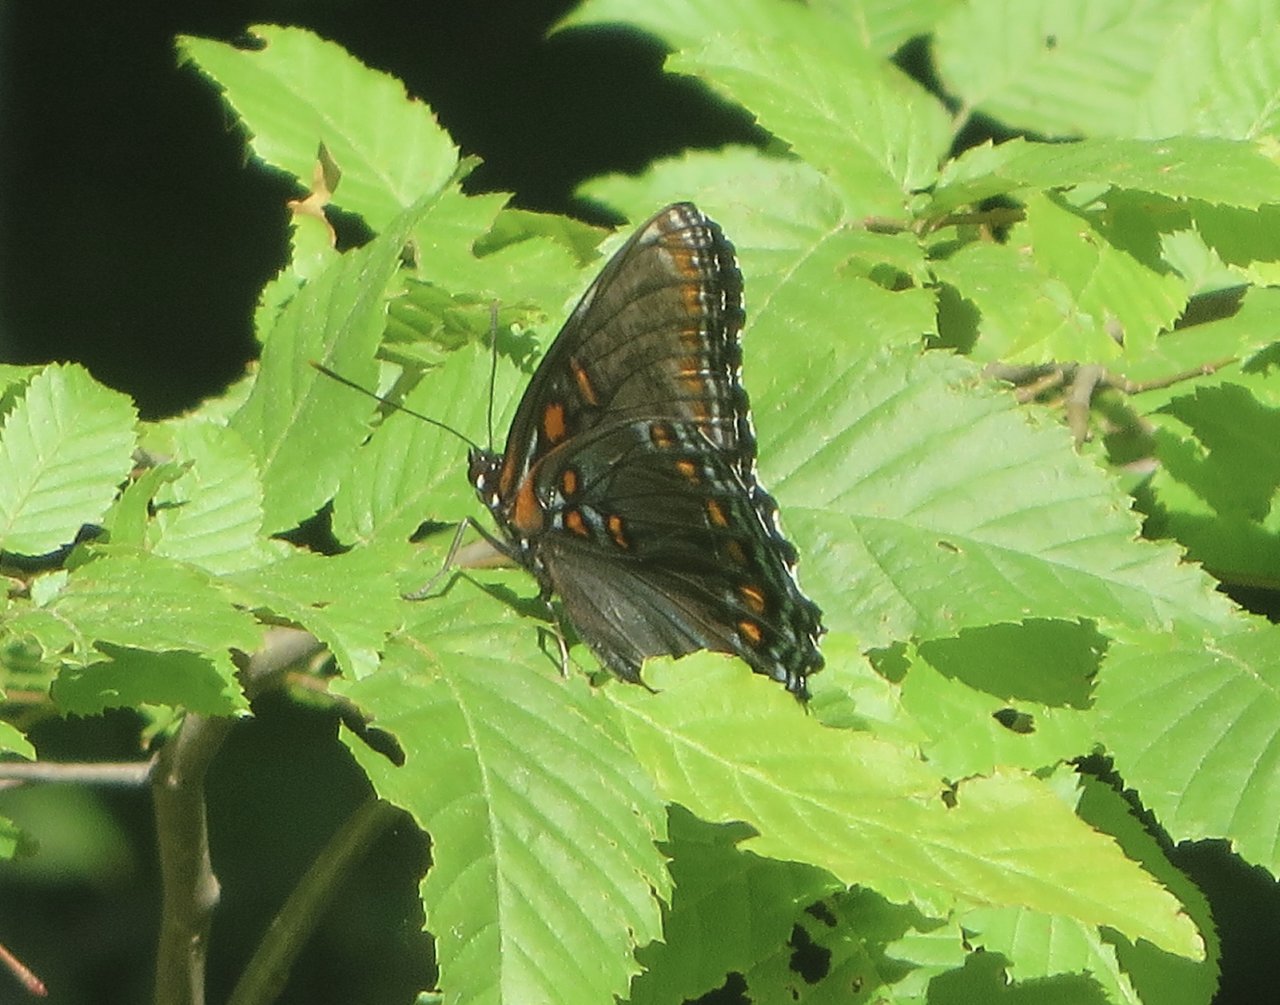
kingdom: Animalia
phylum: Arthropoda
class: Insecta
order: Lepidoptera
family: Nymphalidae
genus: Limenitis
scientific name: Limenitis astyanax
